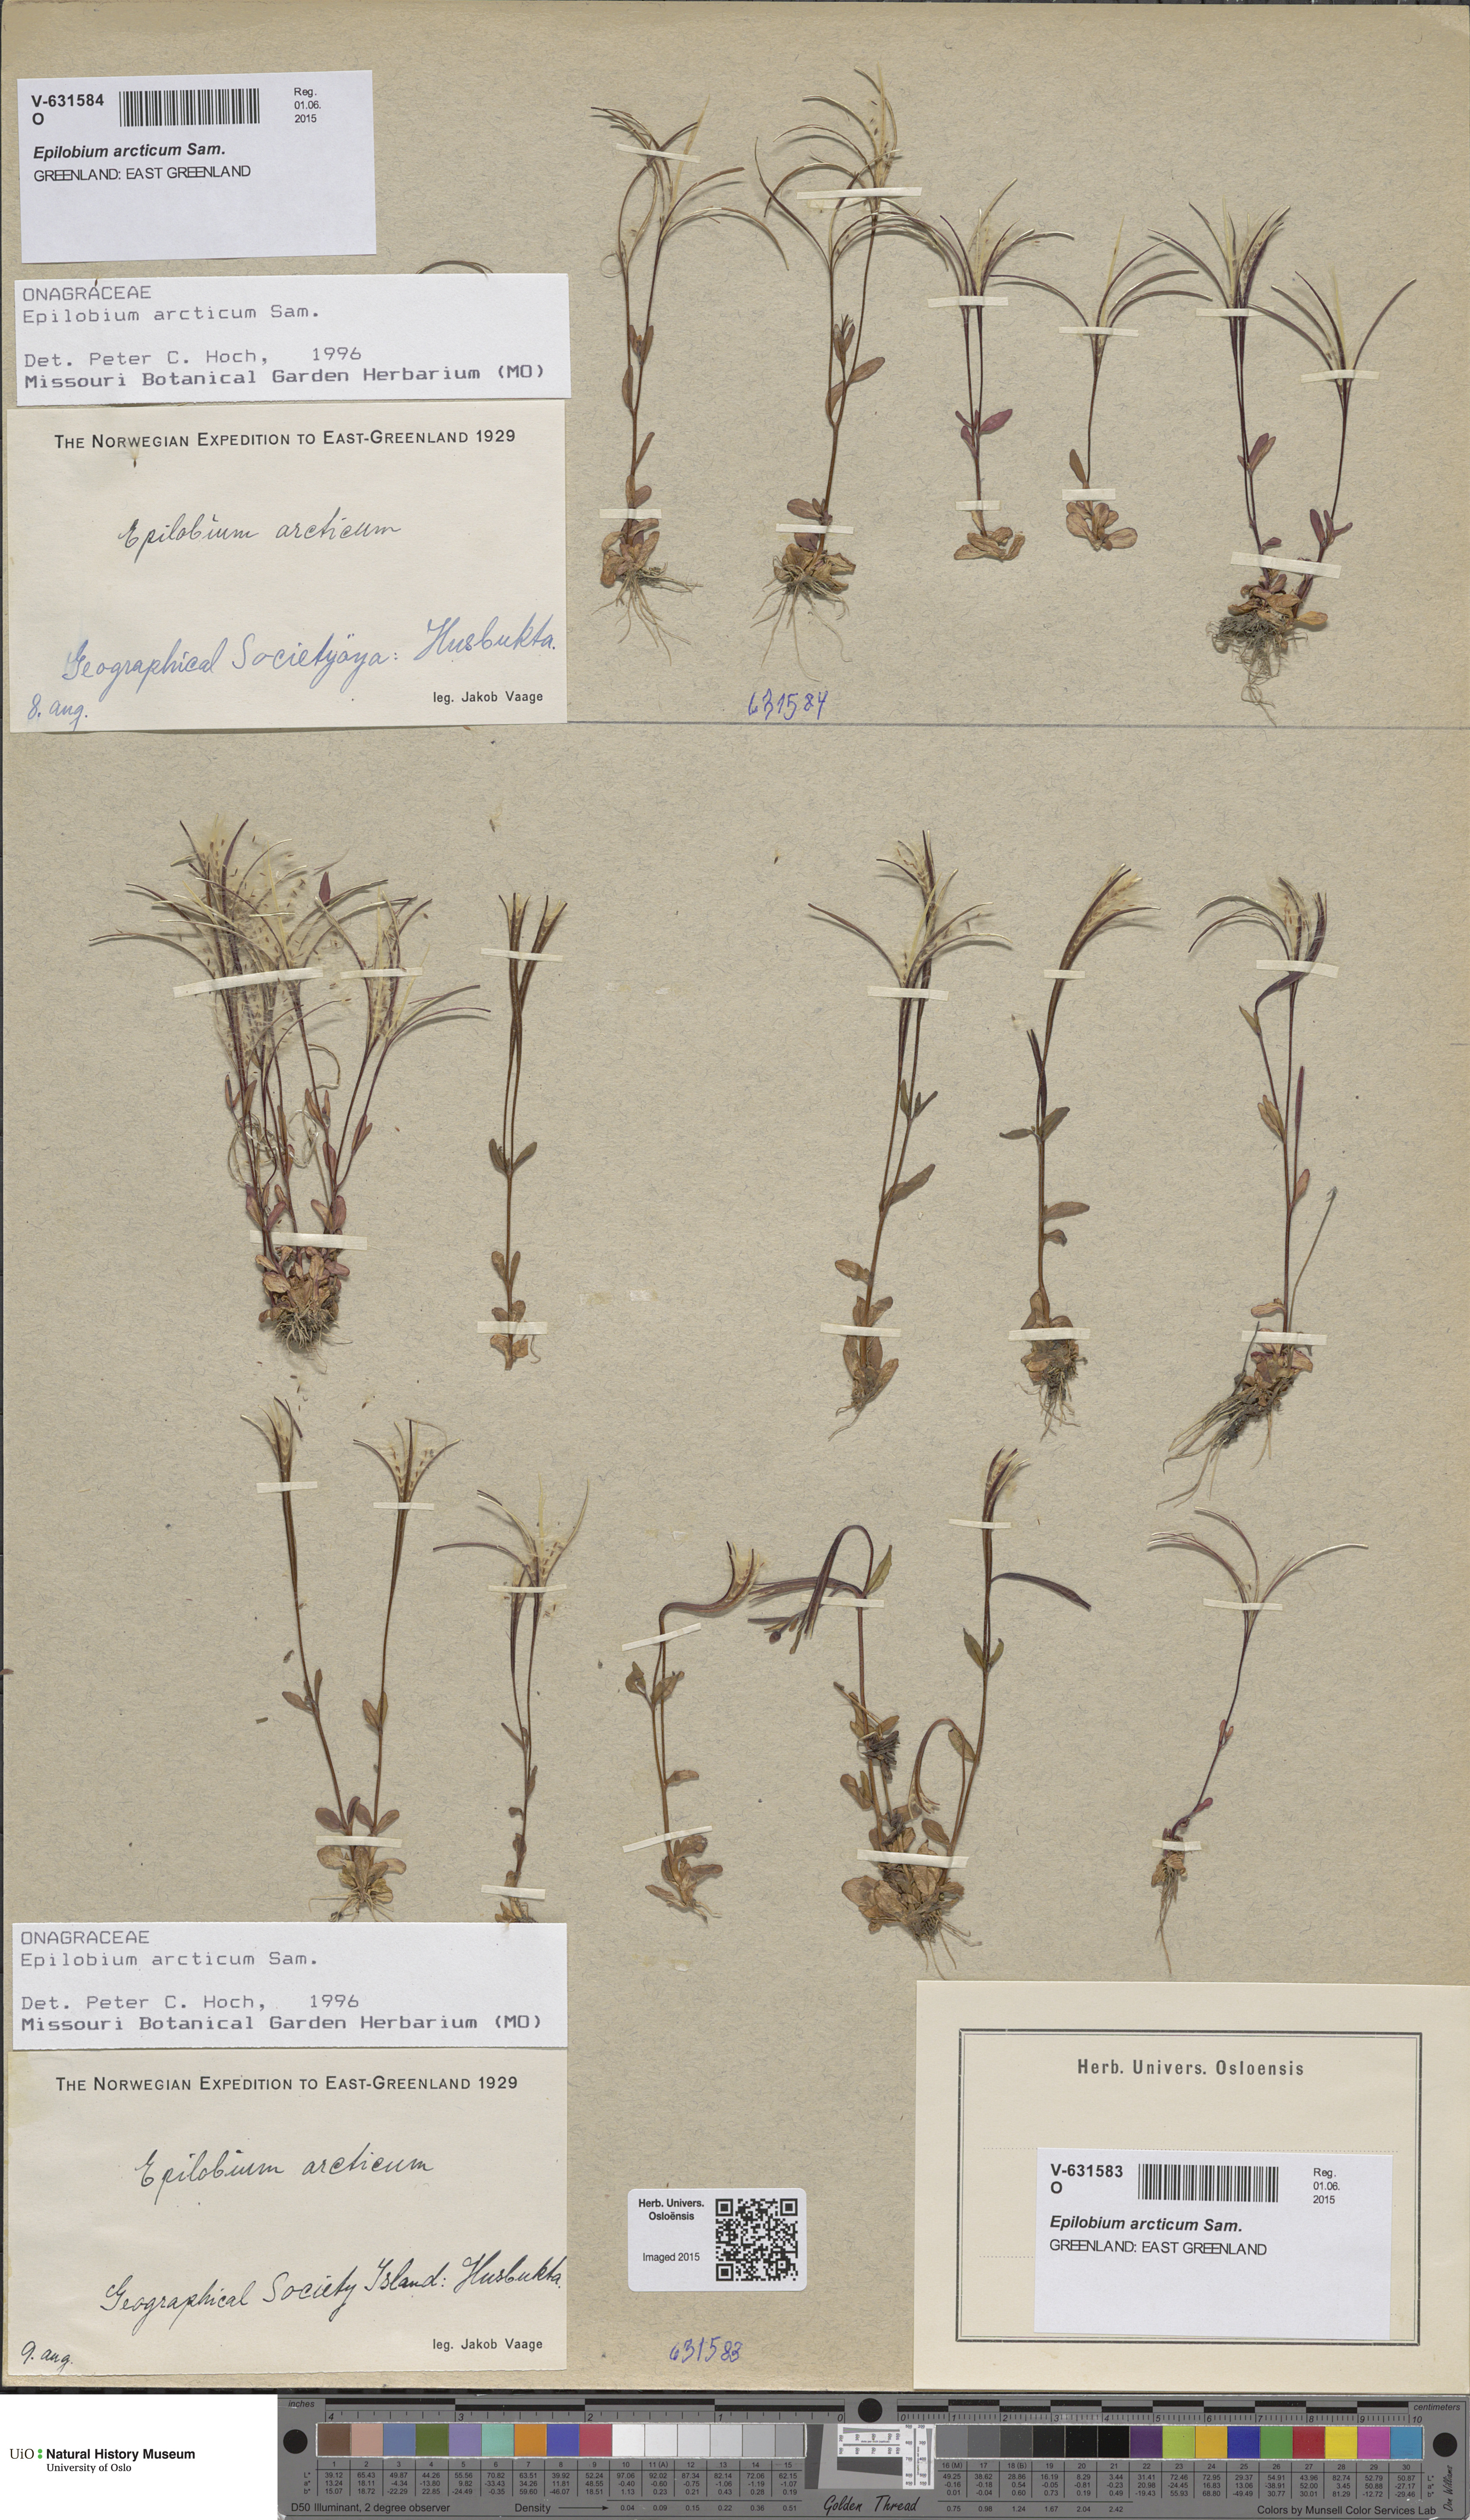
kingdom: Plantae
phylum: Tracheophyta
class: Magnoliopsida
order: Myrtales
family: Onagraceae
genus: Epilobium
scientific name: Epilobium arcticum
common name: Arctic willowherb
